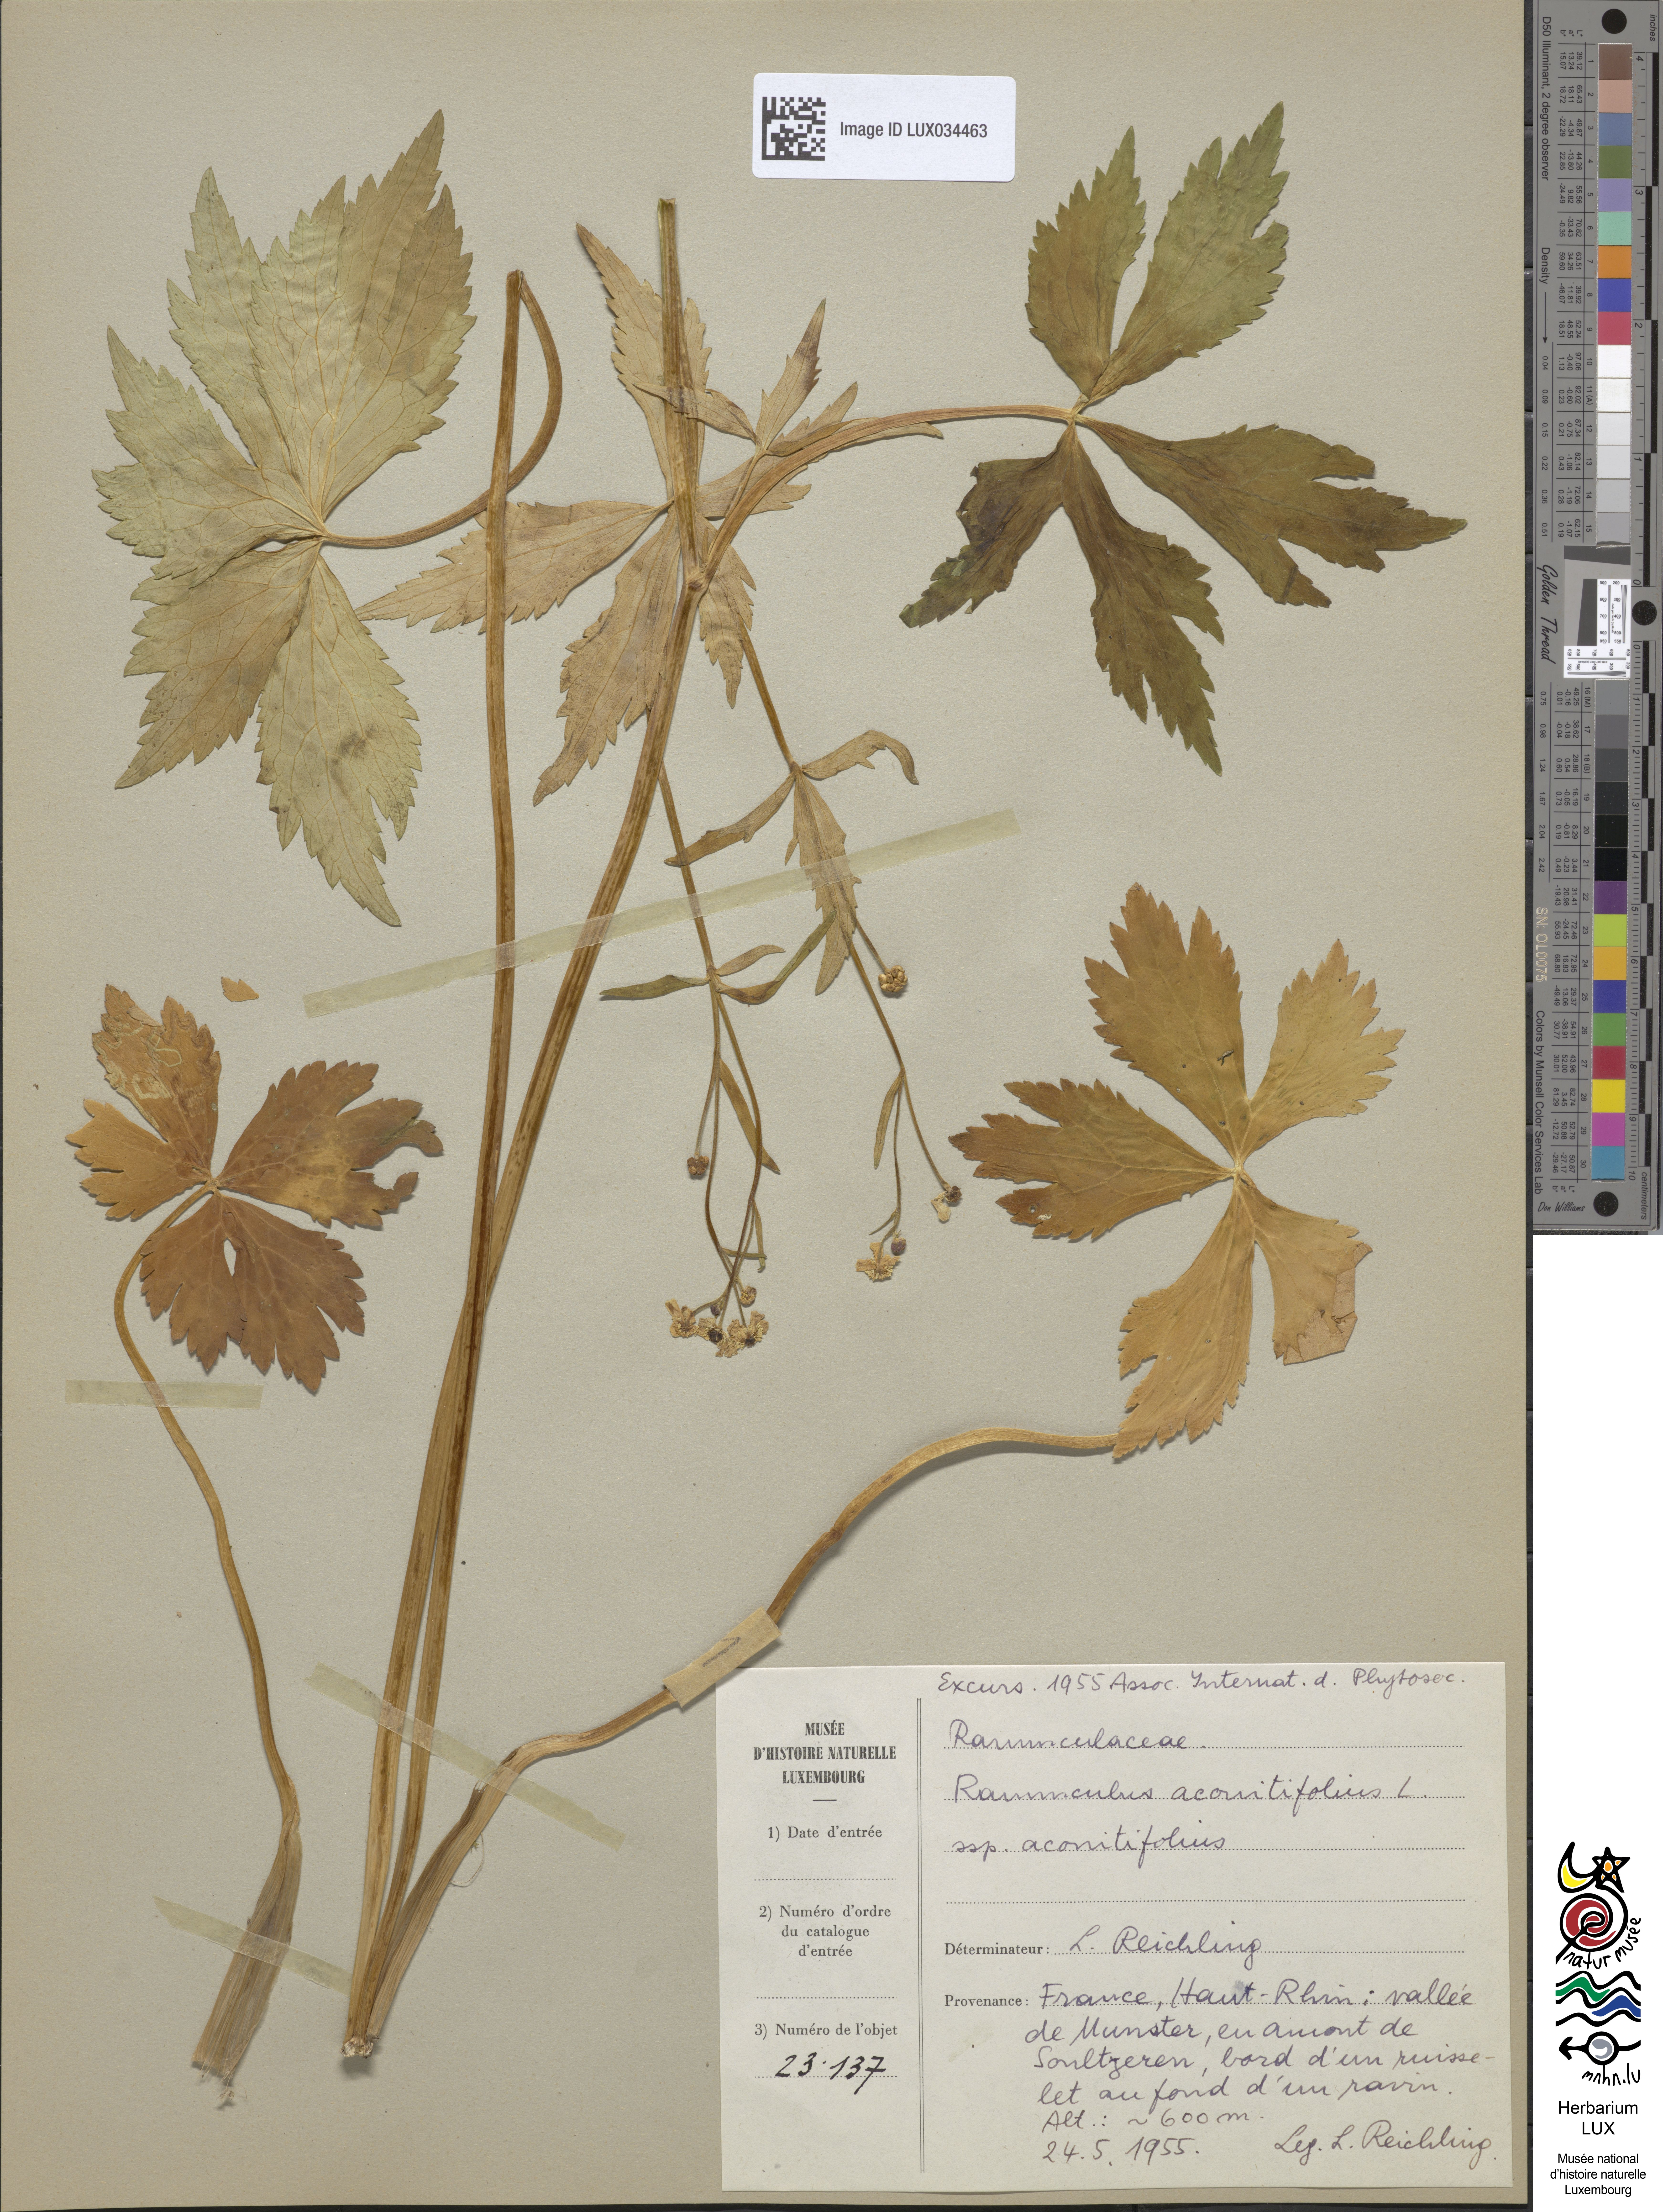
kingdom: Plantae
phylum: Tracheophyta
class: Magnoliopsida
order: Ranunculales
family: Ranunculaceae
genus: Ranunculus
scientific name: Ranunculus aconitifolius
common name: Aconite-leaved buttercup
